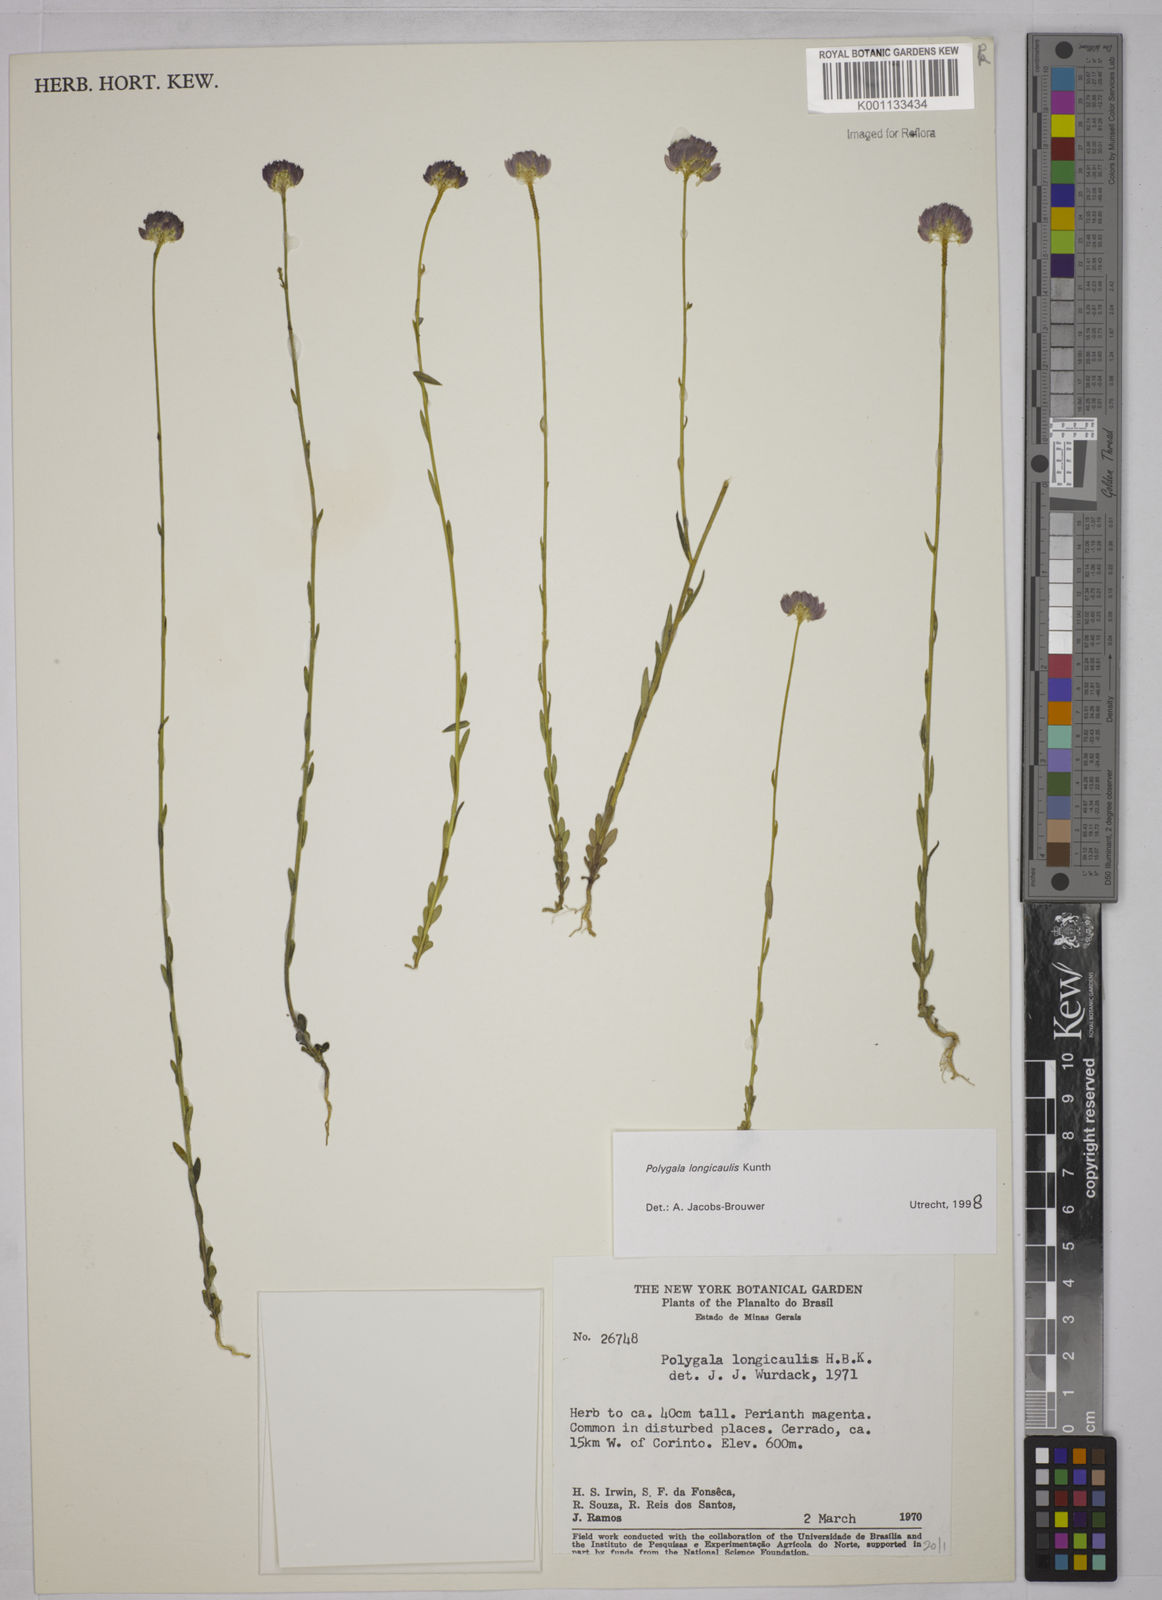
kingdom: Plantae
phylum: Tracheophyta
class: Magnoliopsida
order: Fabales
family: Polygalaceae
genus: Polygala
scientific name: Polygala longicaulis
